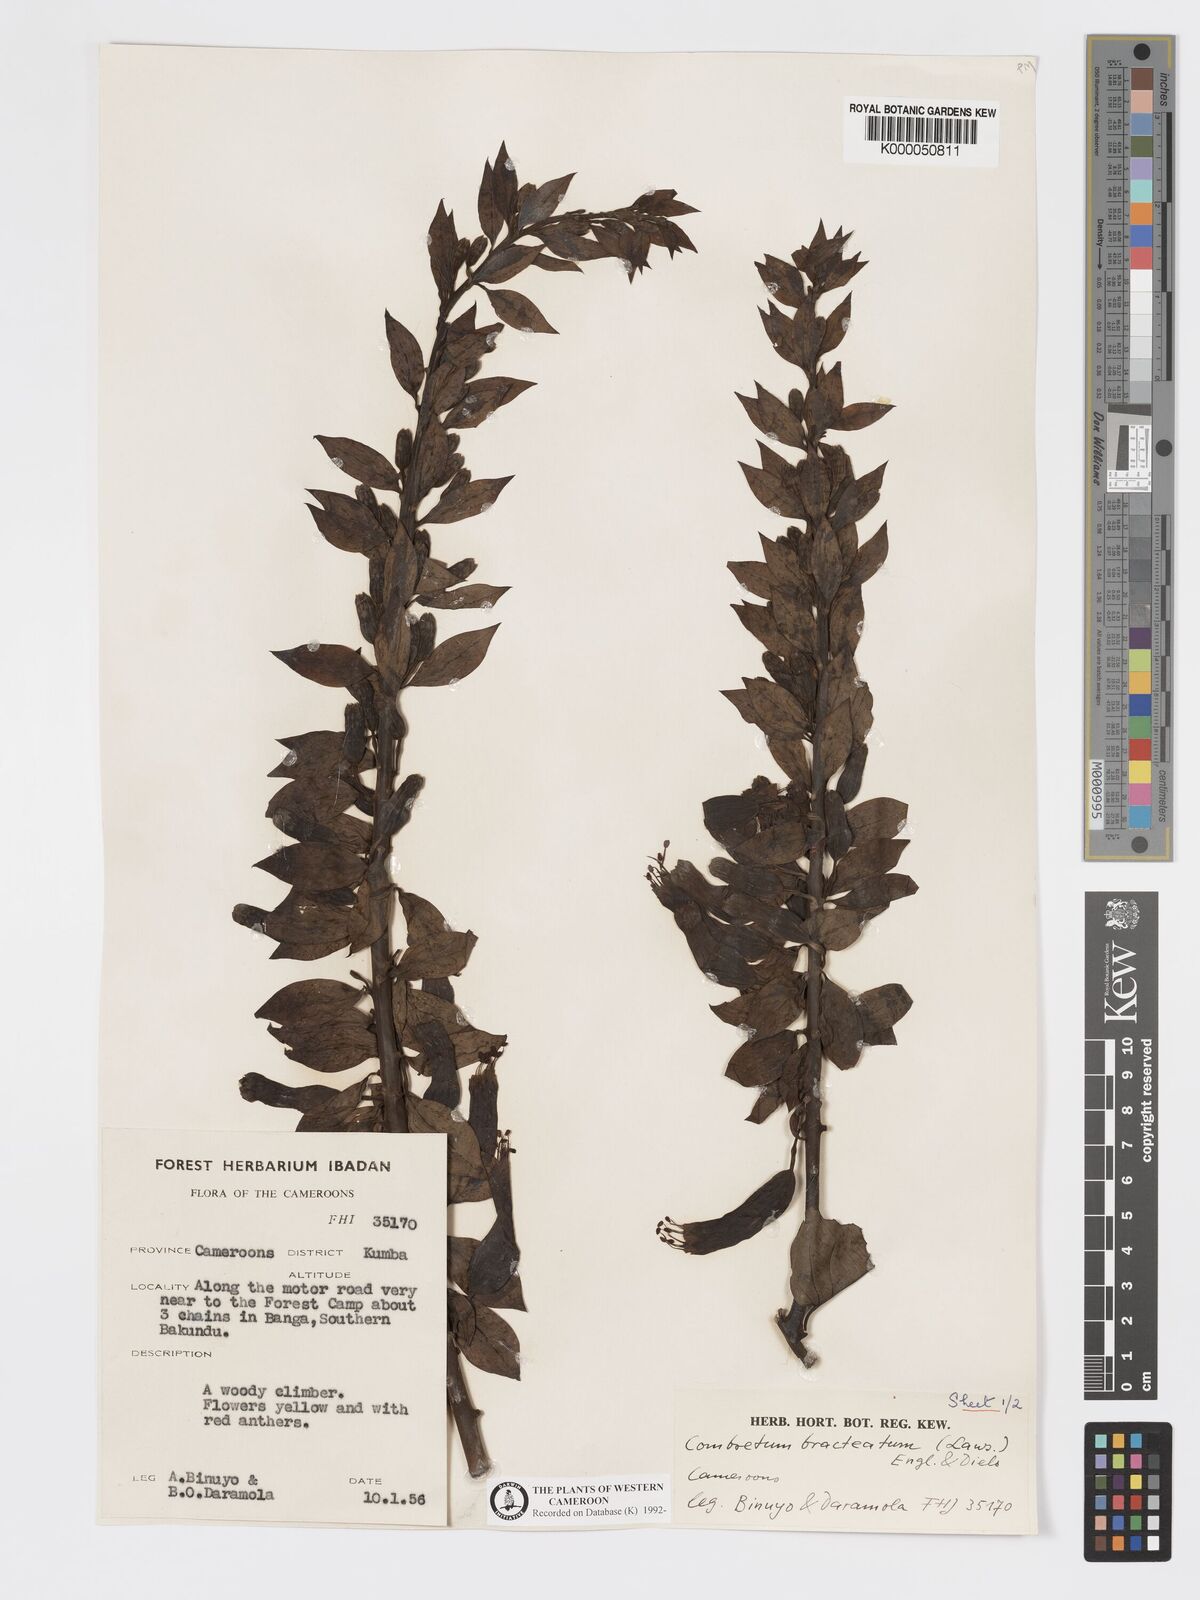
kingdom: Plantae
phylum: Tracheophyta
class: Magnoliopsida
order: Myrtales
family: Combretaceae
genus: Combretum
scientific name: Combretum bracteatum
